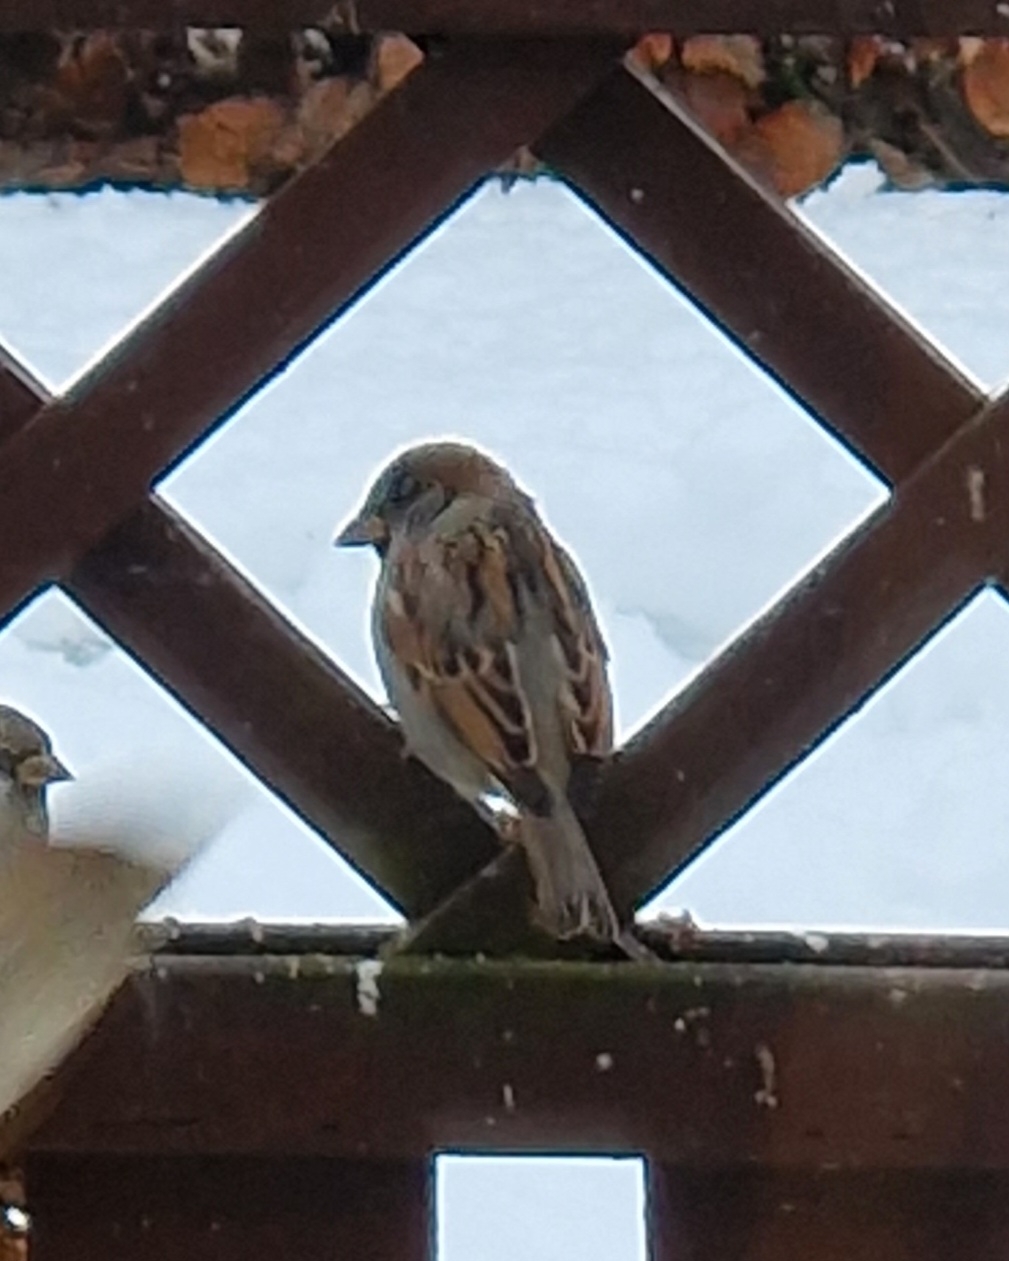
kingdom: Animalia
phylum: Chordata
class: Aves
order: Passeriformes
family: Passeridae
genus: Passer
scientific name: Passer domesticus
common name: Gråspurv
